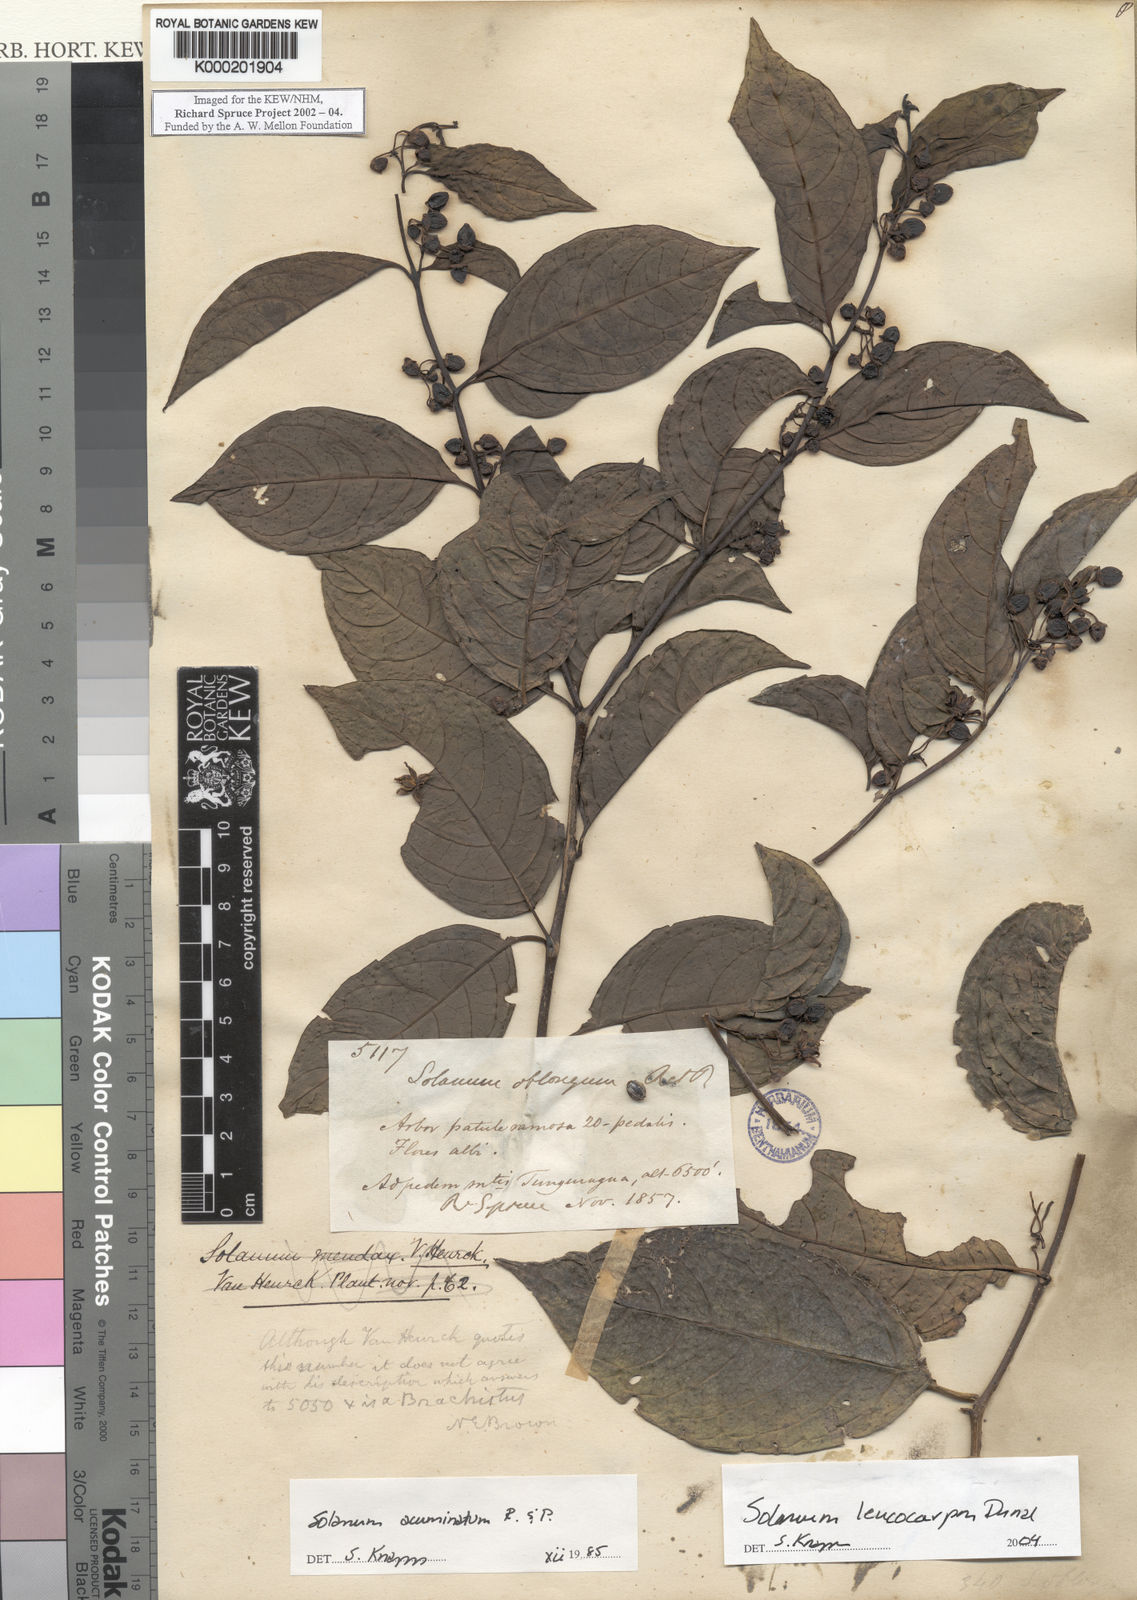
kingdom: Plantae
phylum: Tracheophyta
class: Magnoliopsida
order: Solanales
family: Solanaceae
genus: Solanum
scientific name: Solanum leucocarpon
